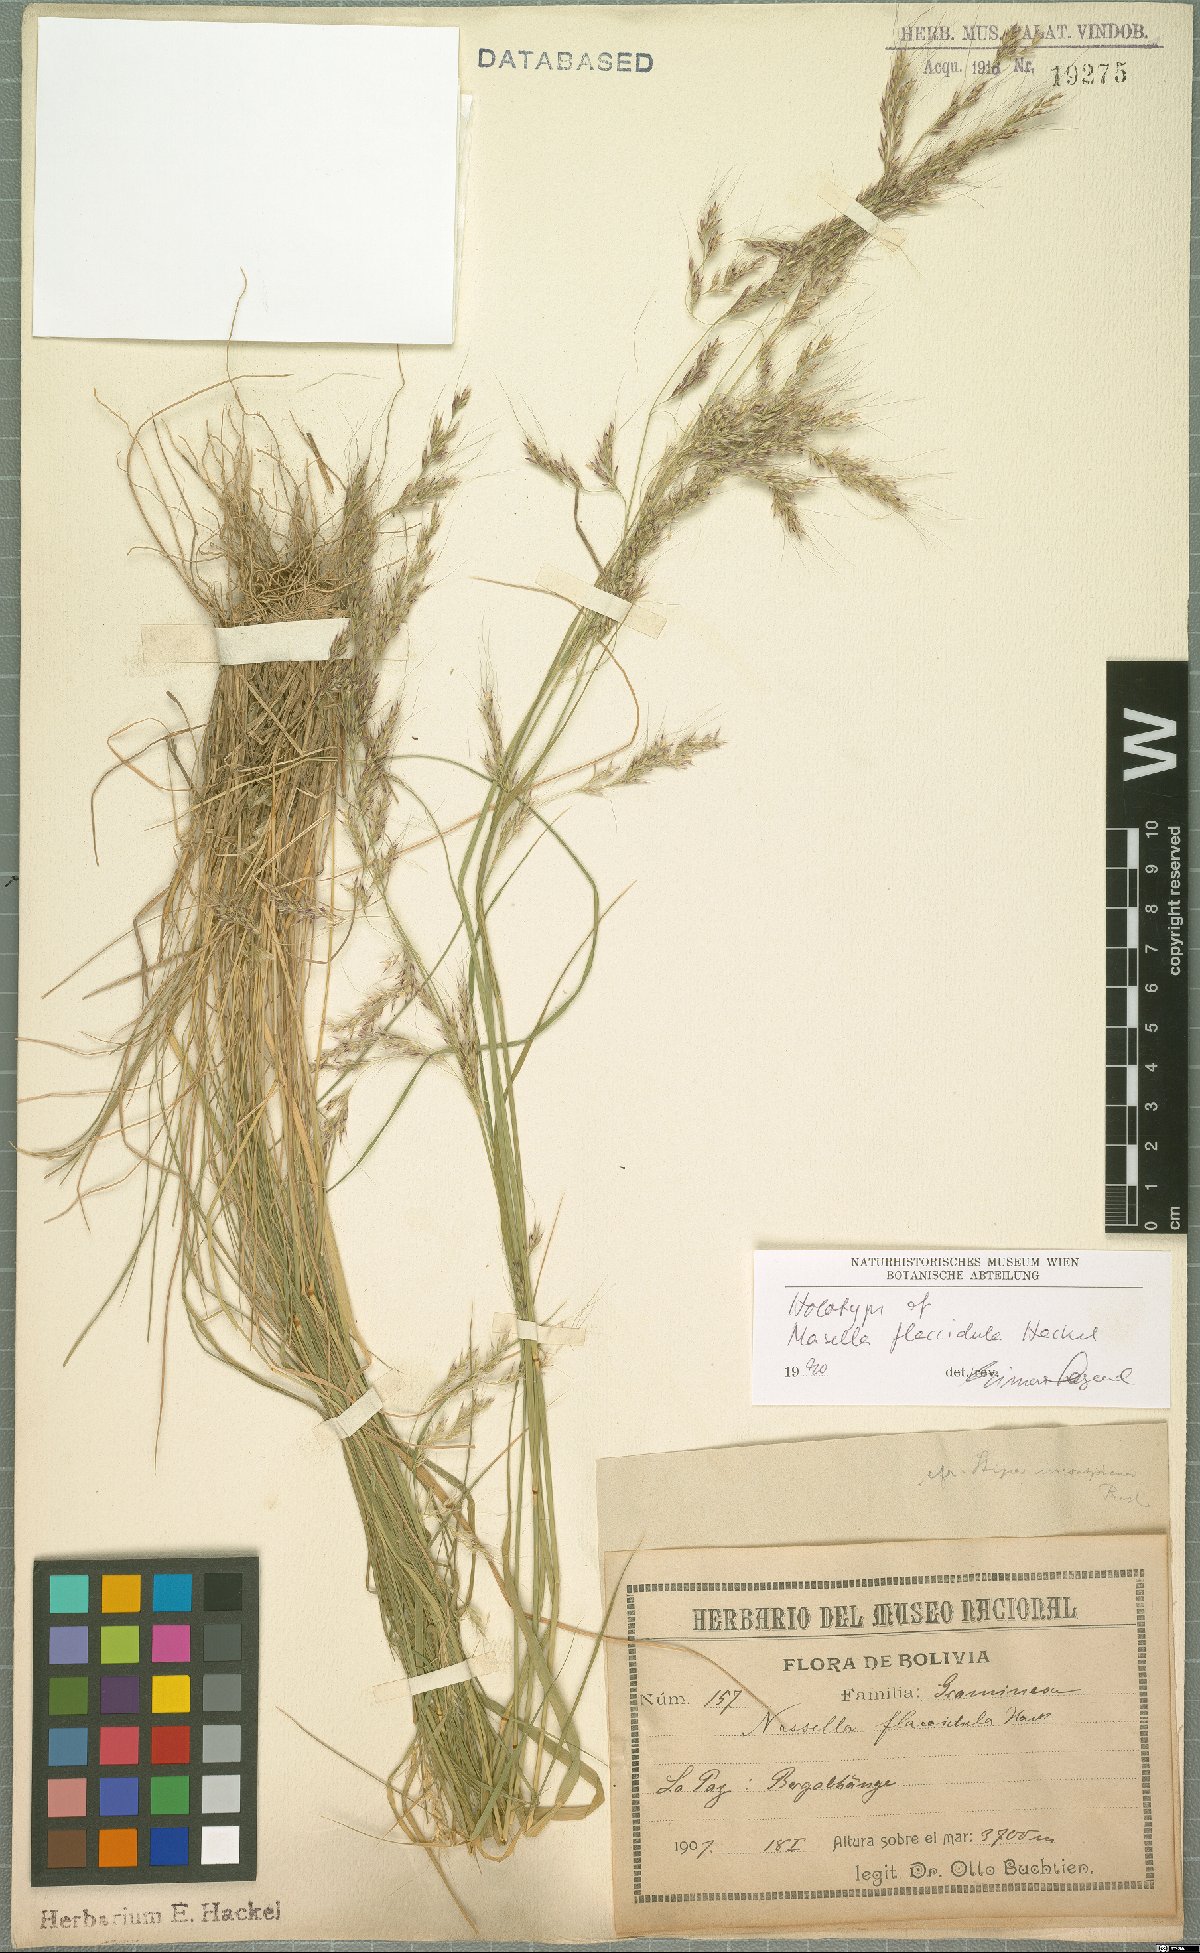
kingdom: Plantae
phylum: Tracheophyta
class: Liliopsida
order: Poales
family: Poaceae
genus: Nassella
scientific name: Nassella pubiflora
